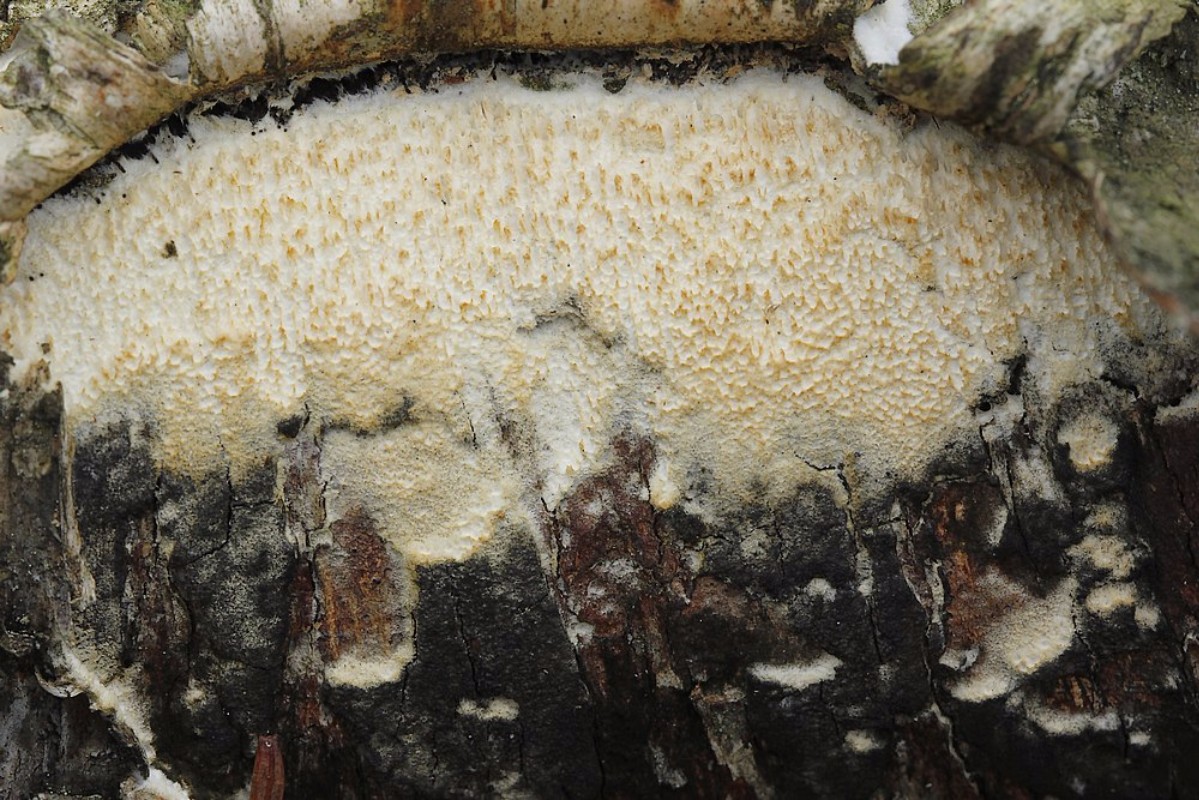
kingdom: Fungi
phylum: Basidiomycota
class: Agaricomycetes
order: Hymenochaetales
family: Schizoporaceae
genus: Schizopora
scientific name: Schizopora paradoxa
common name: hvid tandsvamp
